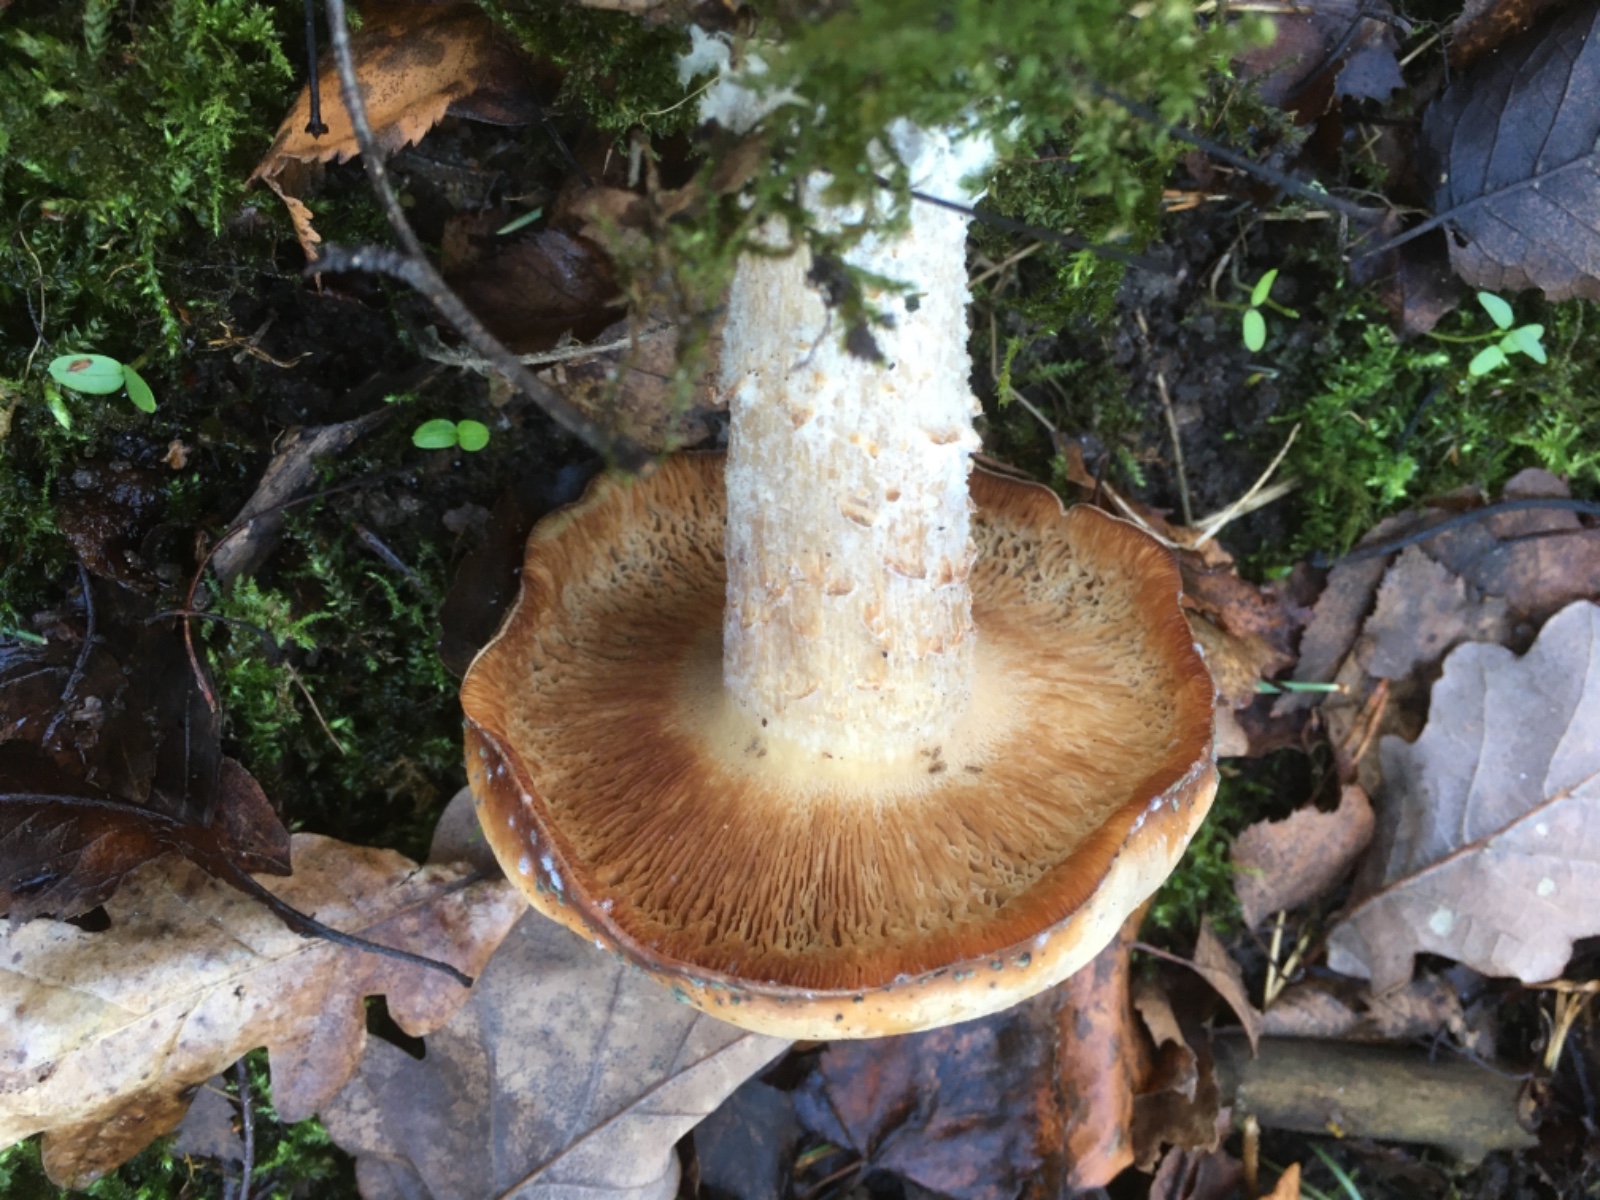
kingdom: Fungi
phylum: Basidiomycota
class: Agaricomycetes
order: Agaricales
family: Tricholomataceae
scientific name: Tricholomataceae
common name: ridderhatfamilien
